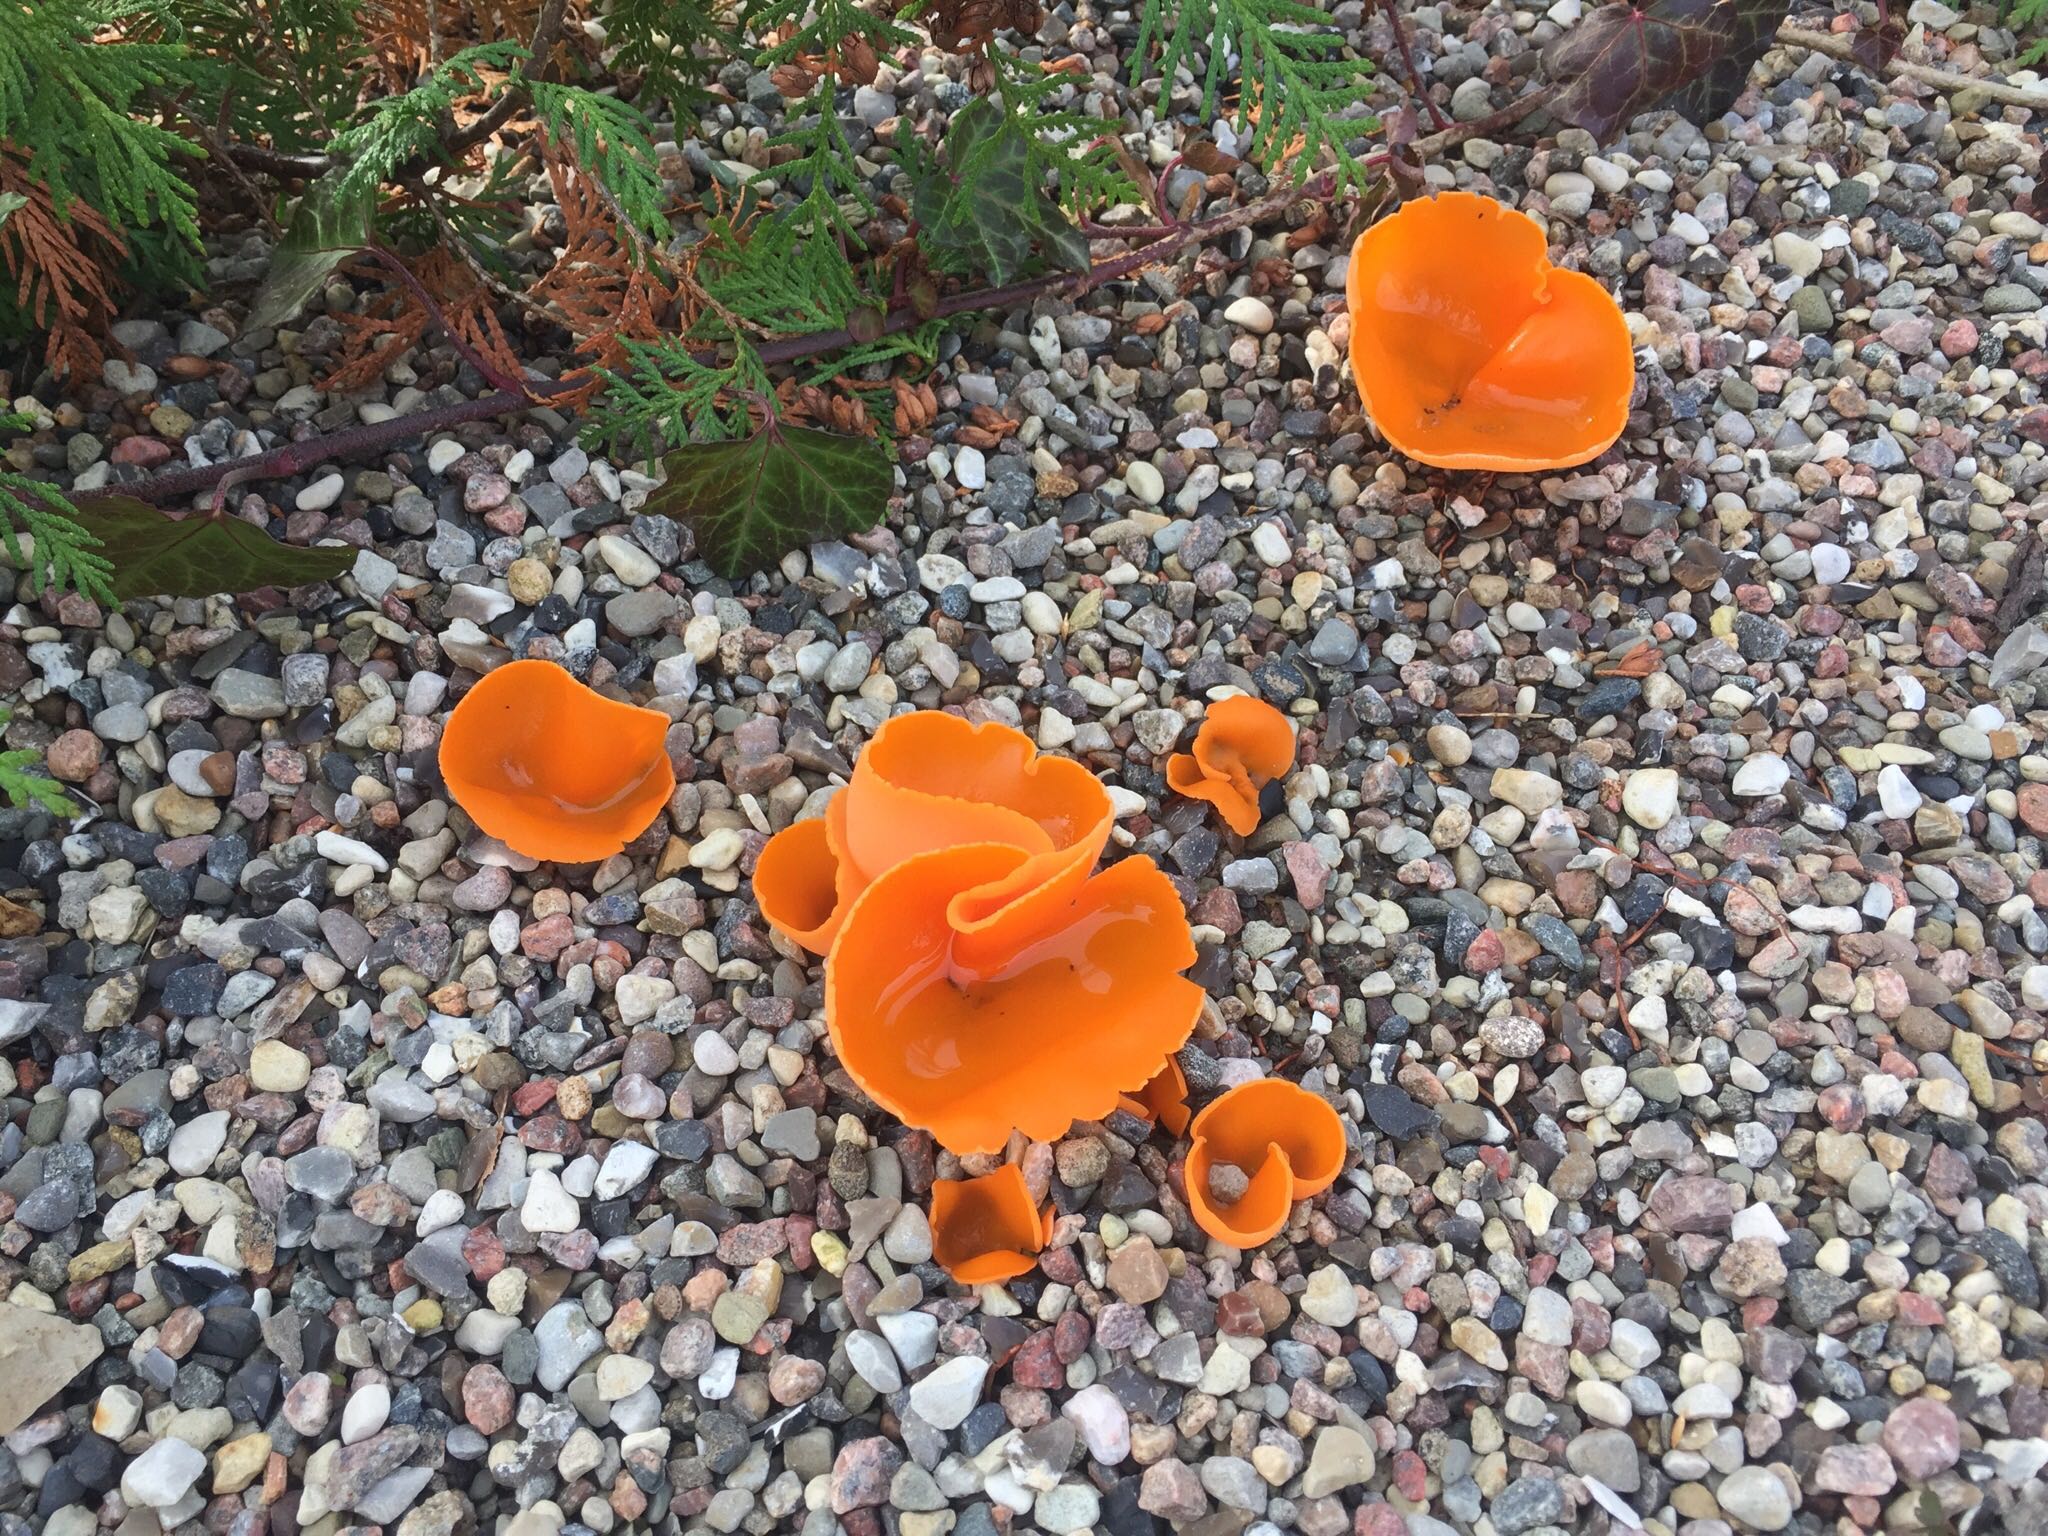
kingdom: Fungi
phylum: Ascomycota
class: Pezizomycetes
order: Pezizales
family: Pyronemataceae
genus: Aleuria
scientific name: Aleuria aurantia
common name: almindelig orangebæger
